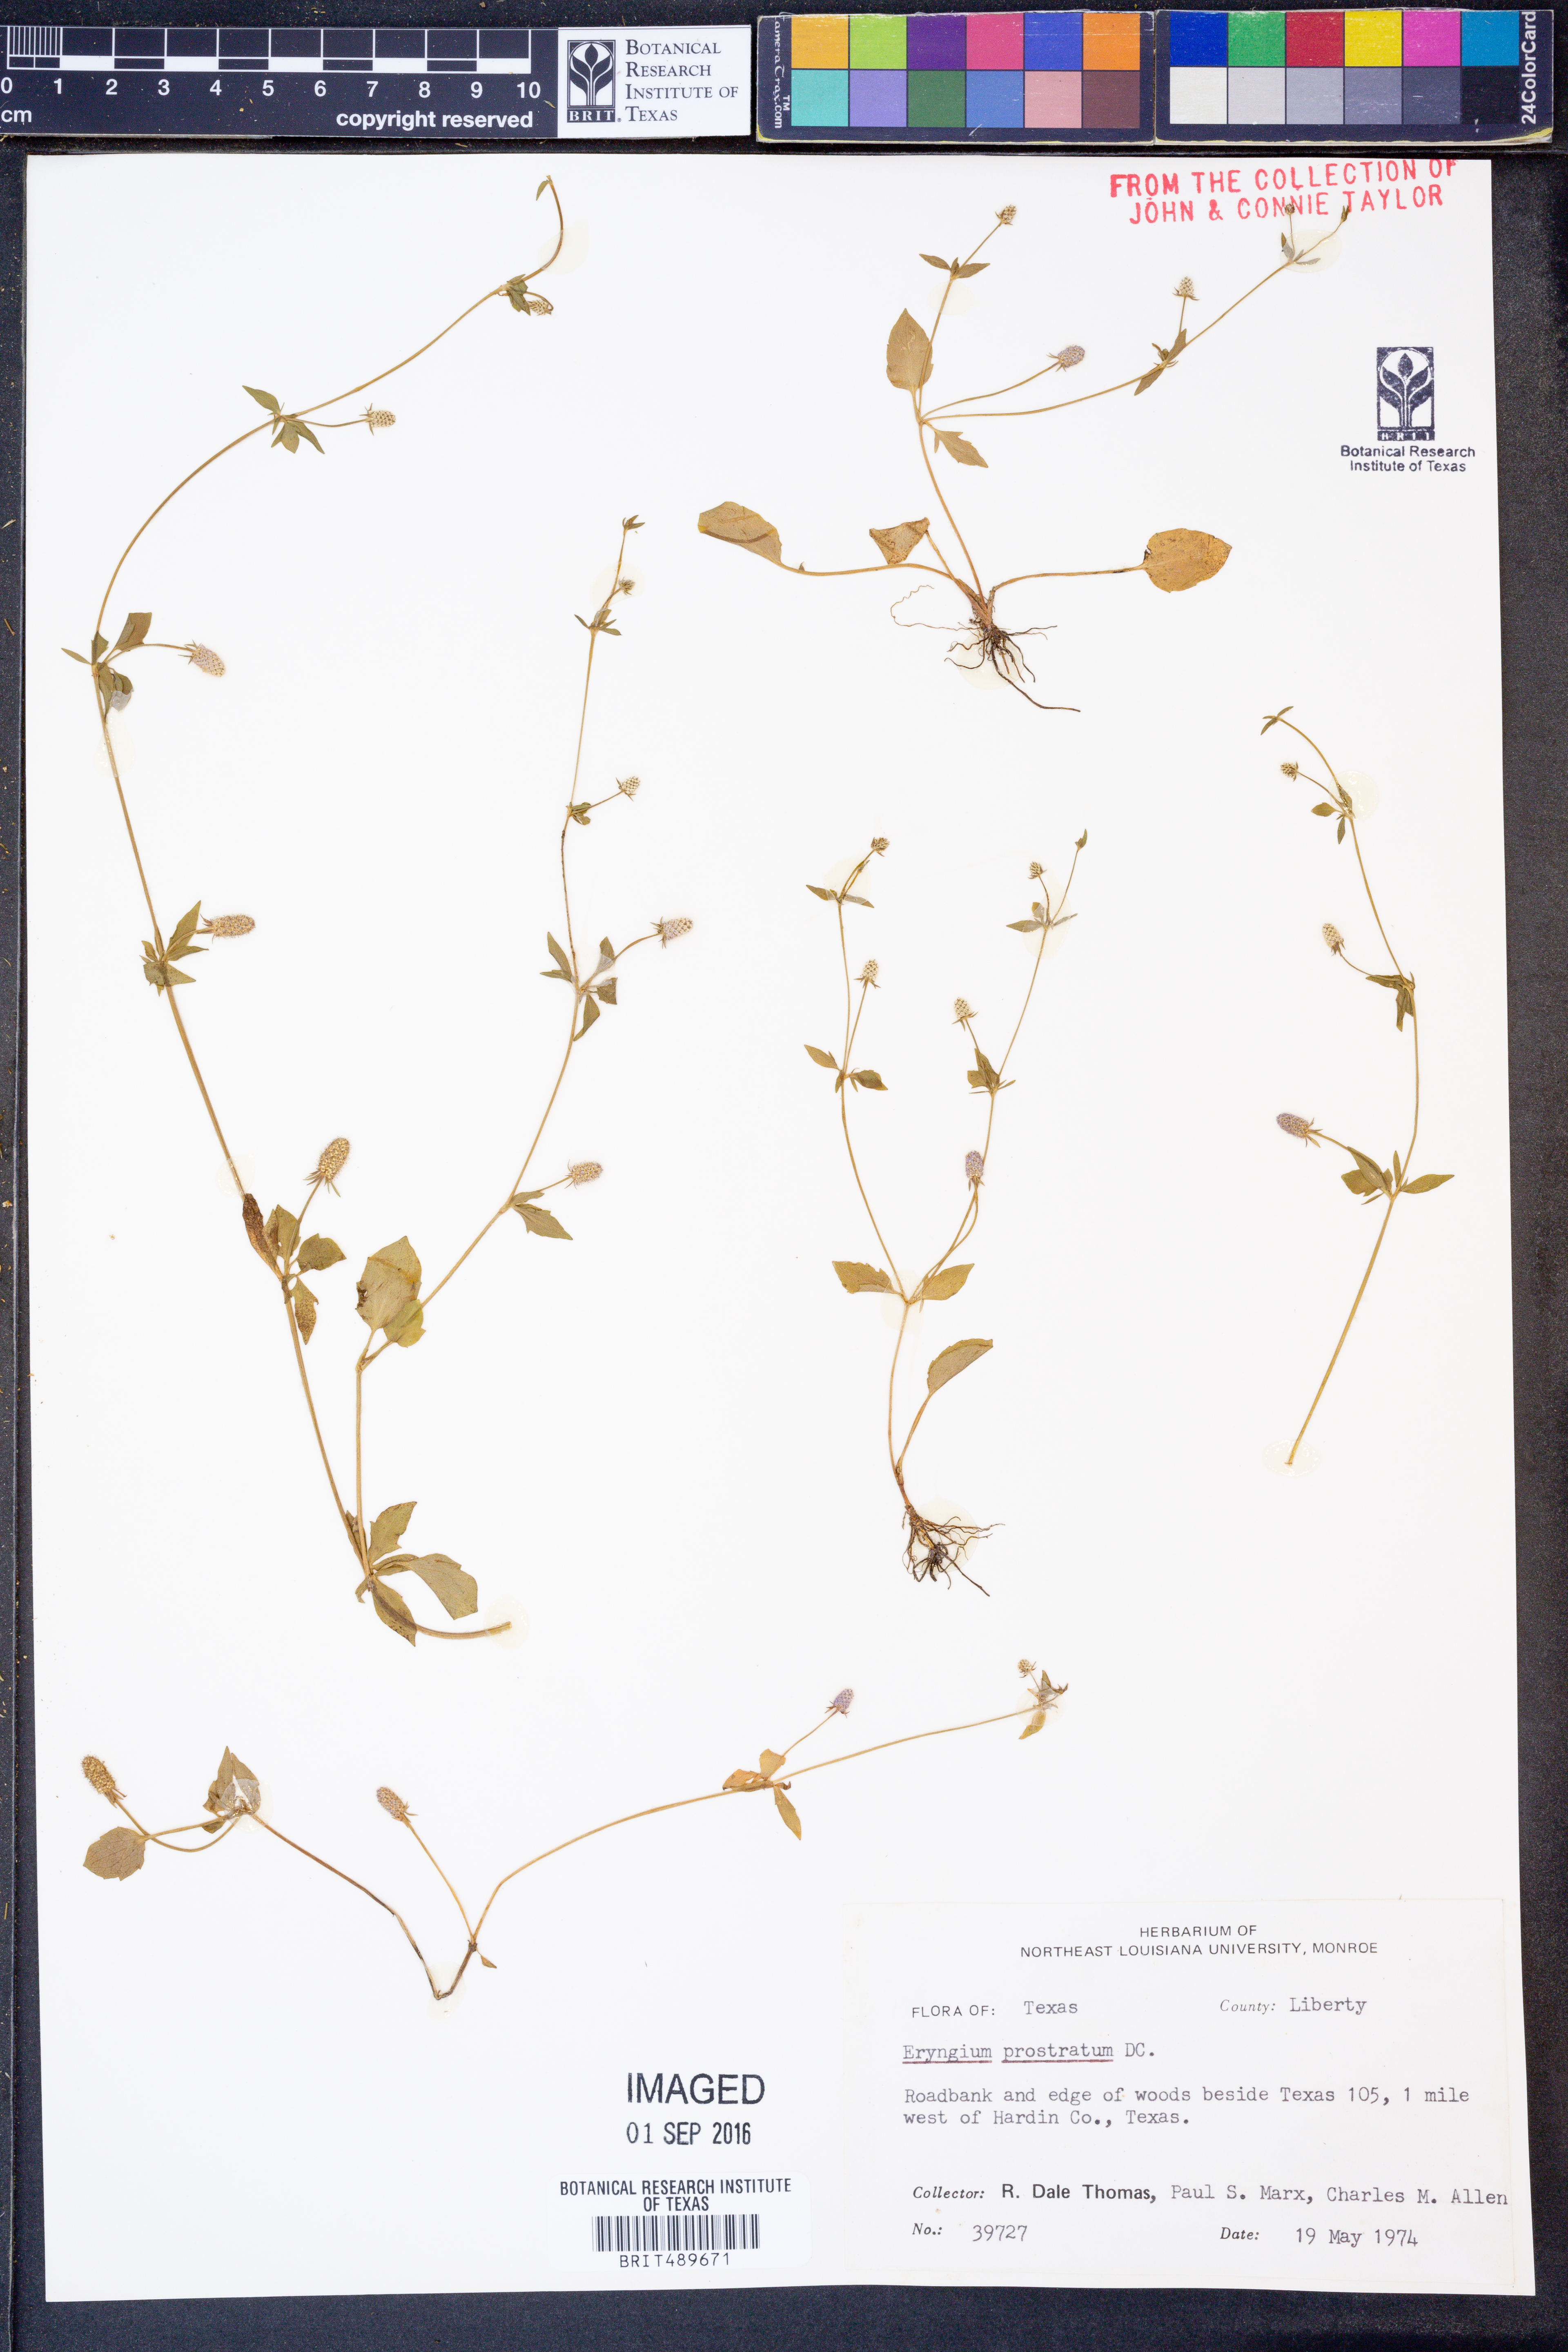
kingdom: Plantae
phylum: Tracheophyta
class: Magnoliopsida
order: Apiales
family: Apiaceae
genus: Eryngium
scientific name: Eryngium prostratum
